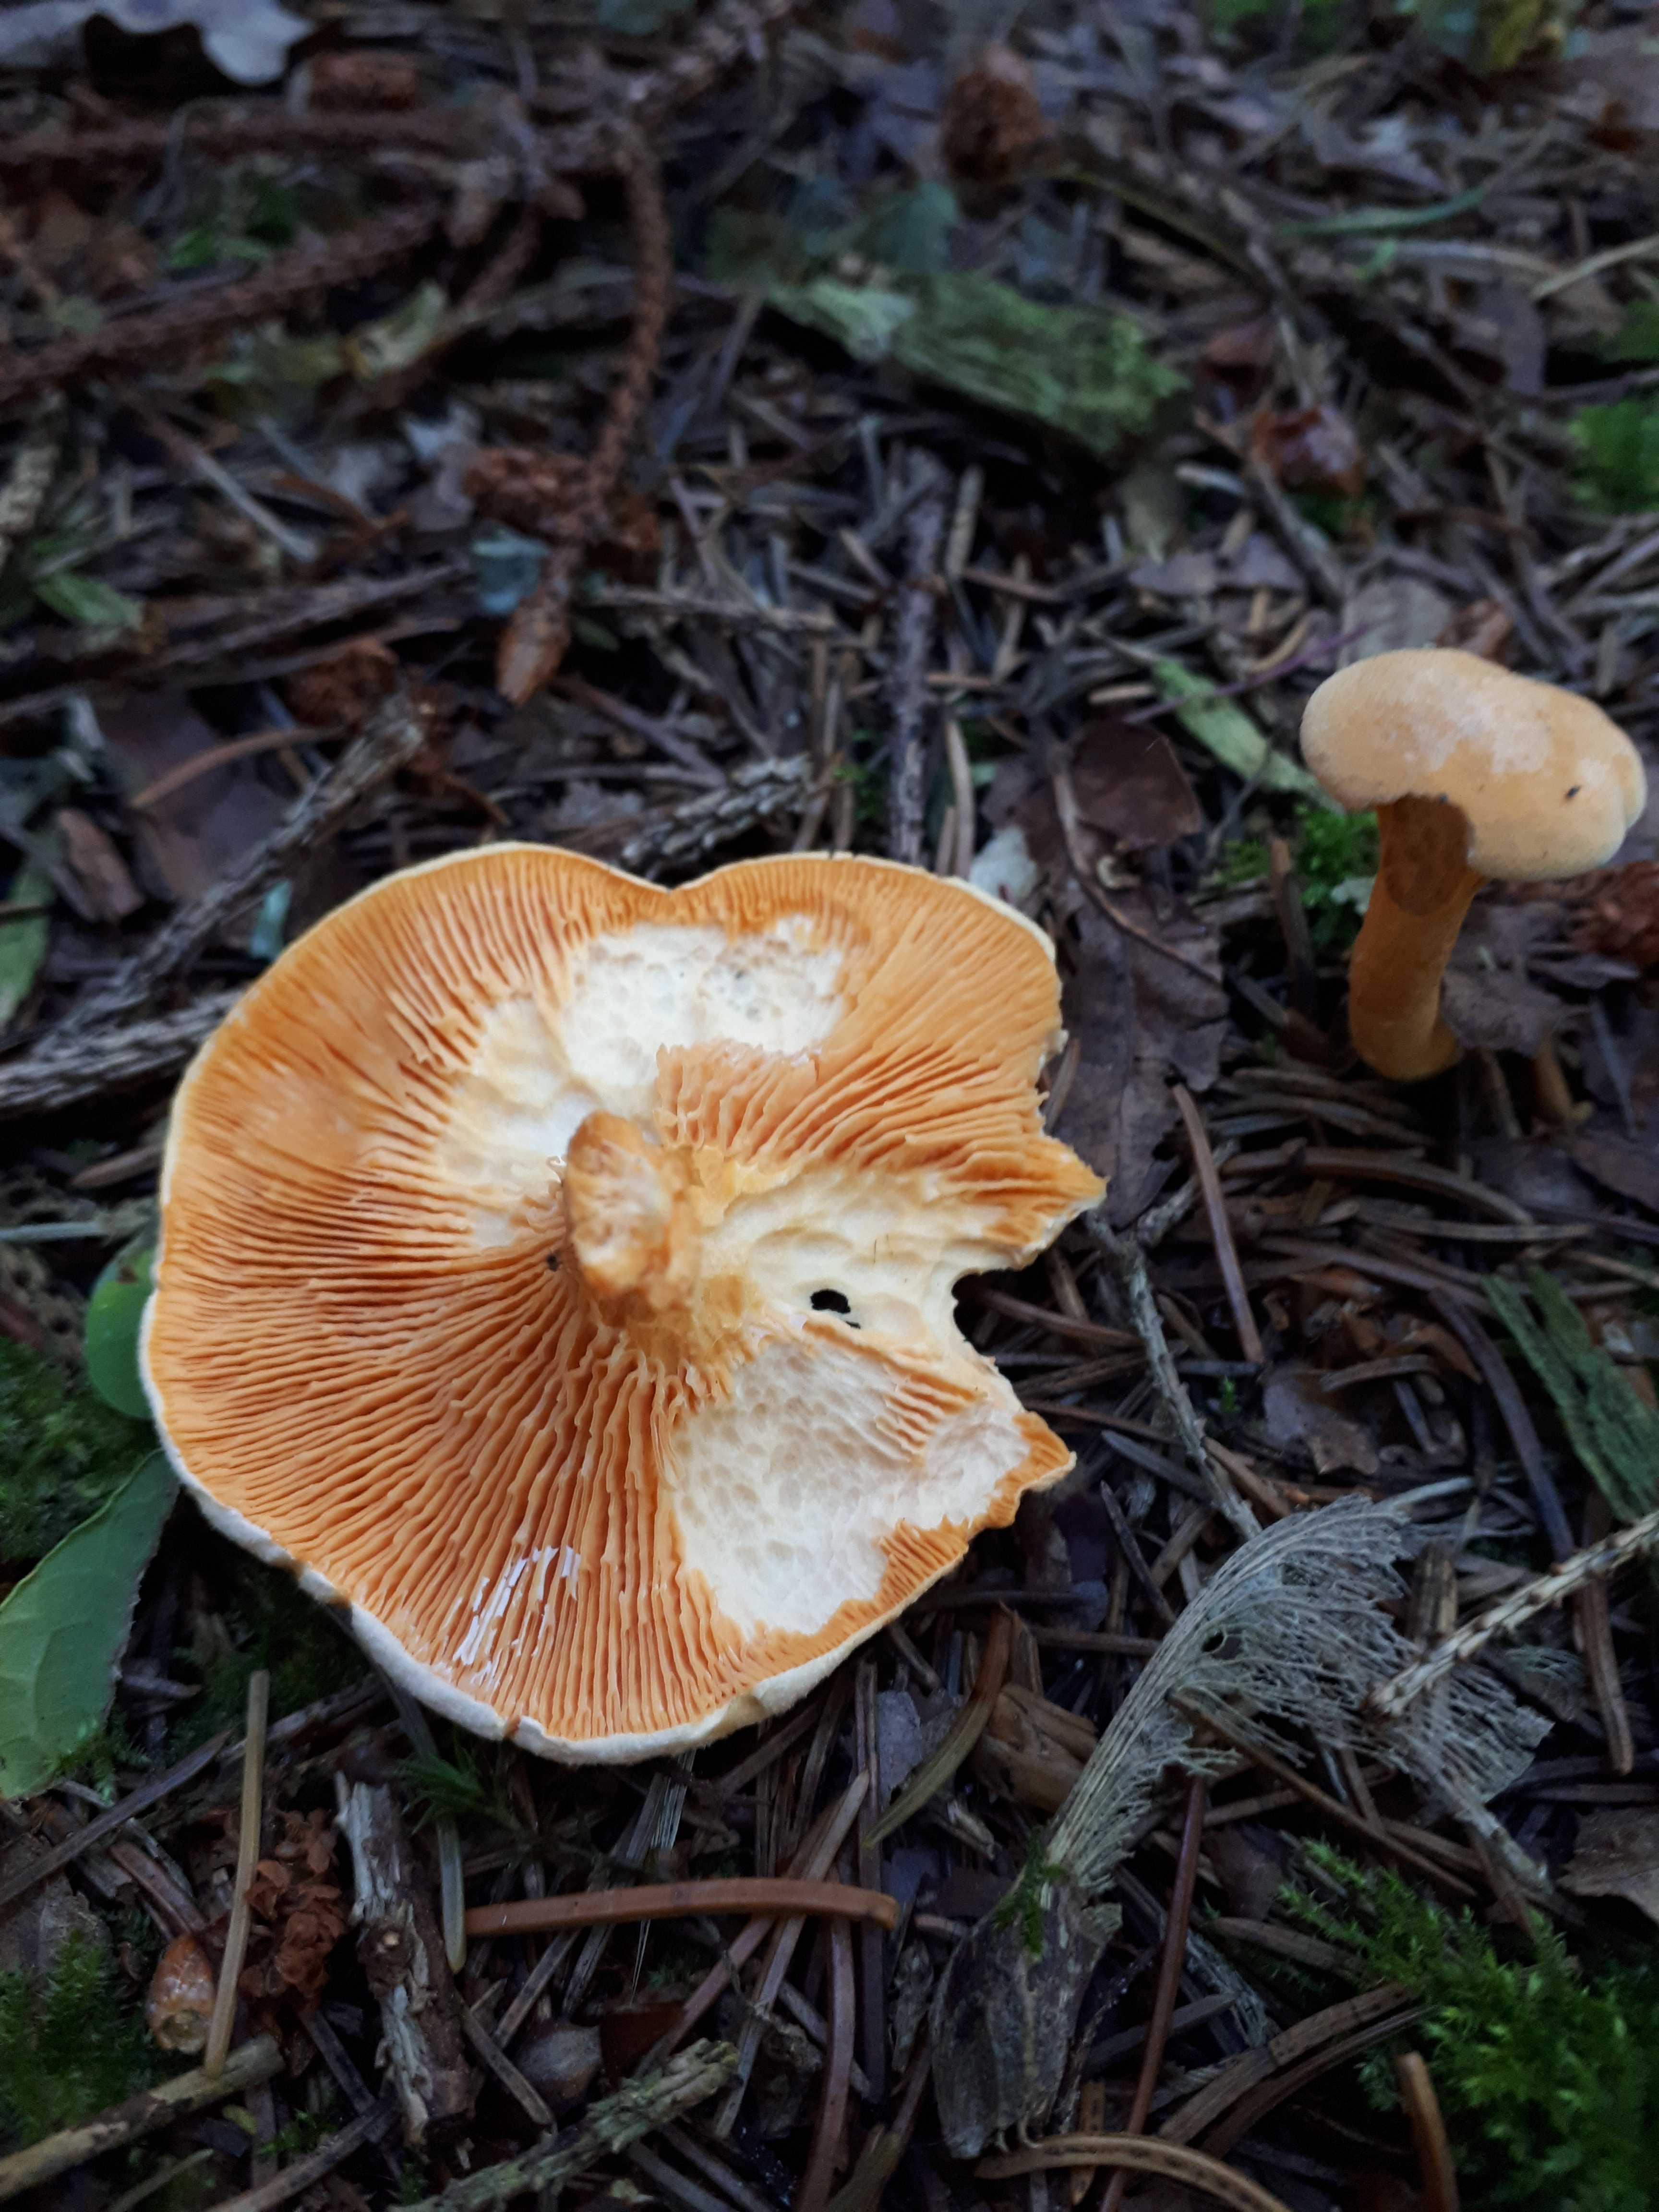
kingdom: Fungi
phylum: Basidiomycota
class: Agaricomycetes
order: Boletales
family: Hygrophoropsidaceae
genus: Hygrophoropsis
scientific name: Hygrophoropsis aurantiaca
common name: almindelig orangekantarel
